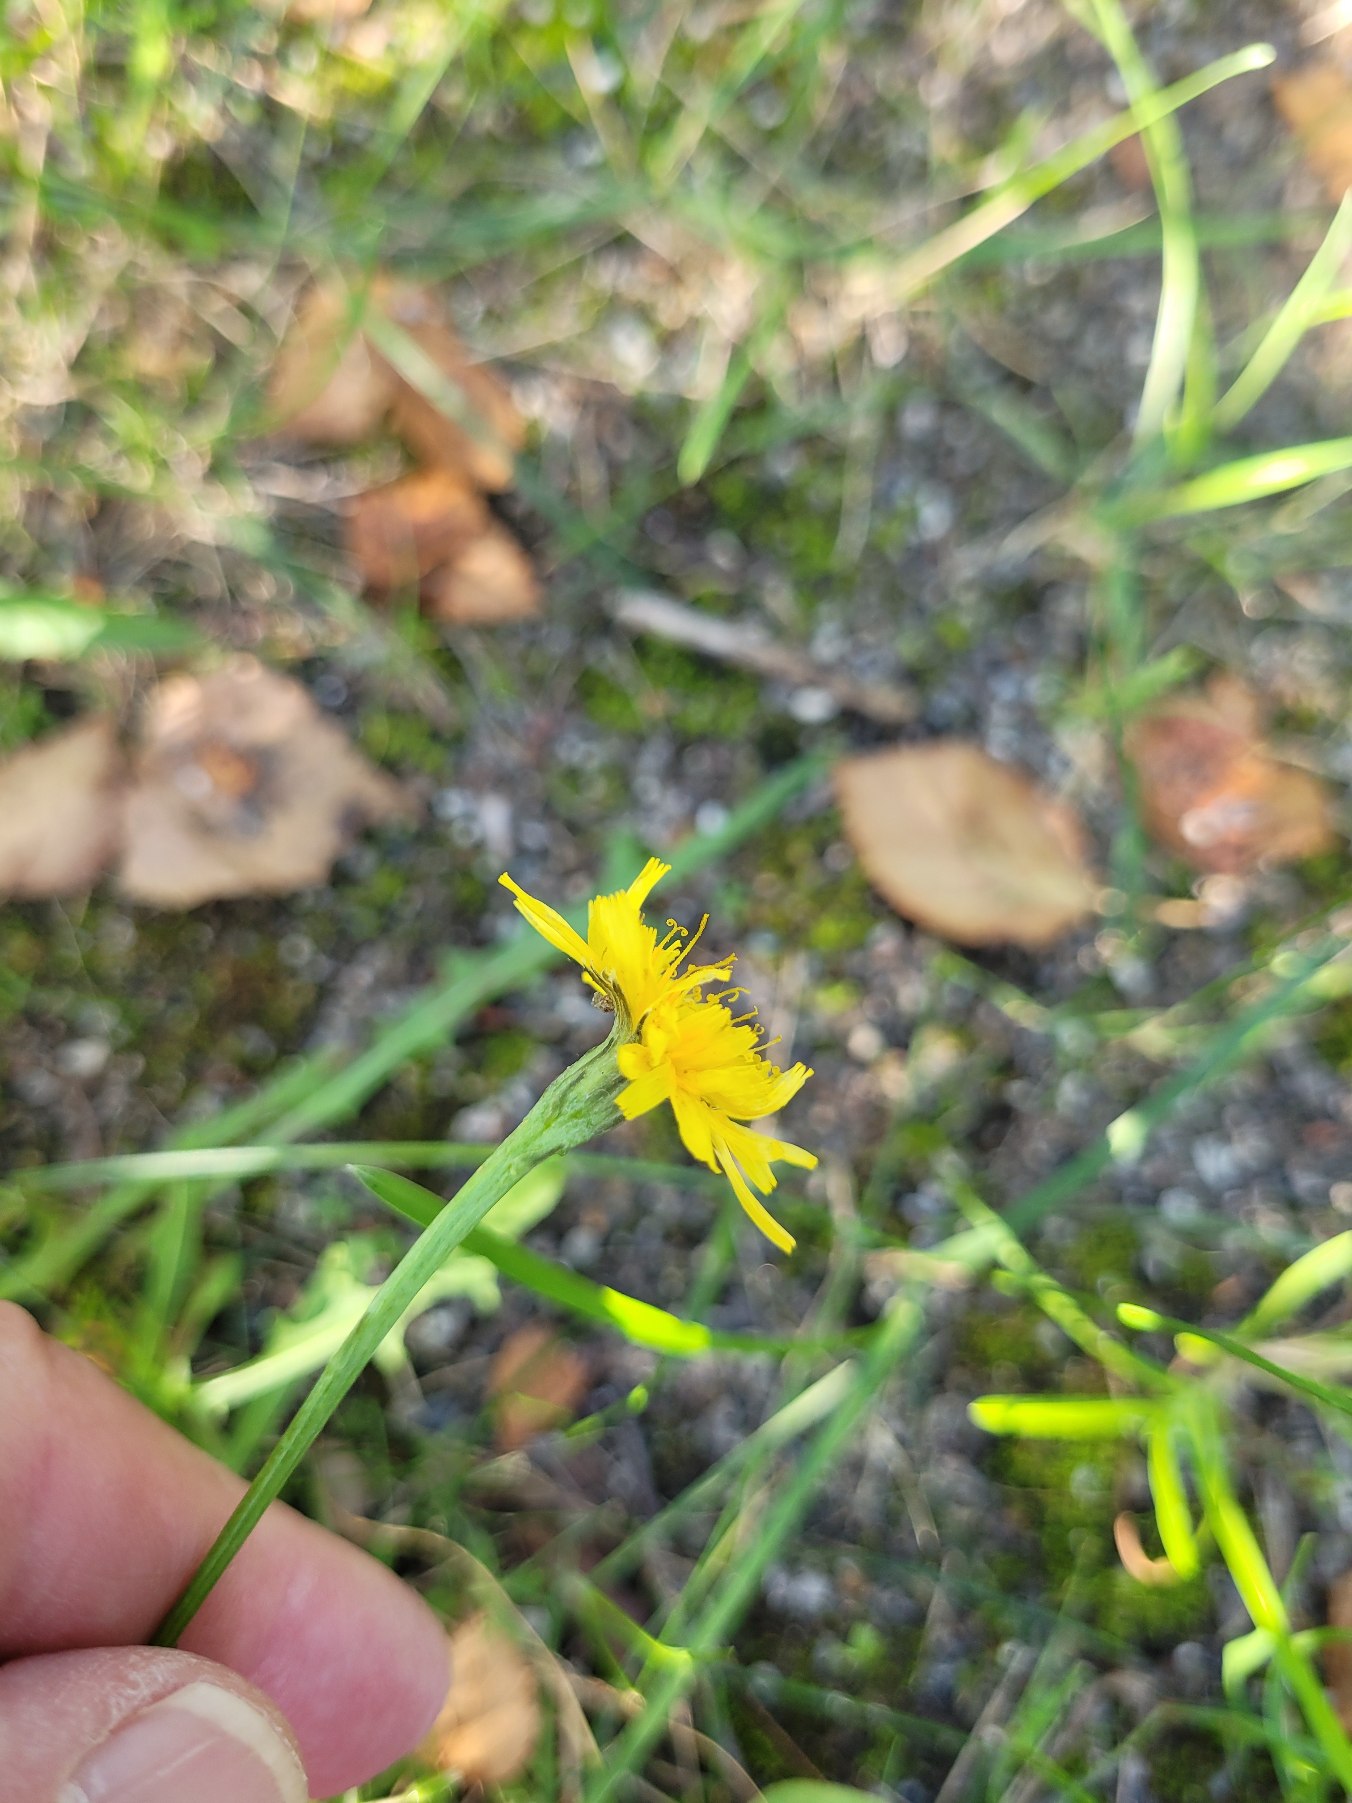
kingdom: Plantae
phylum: Tracheophyta
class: Magnoliopsida
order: Asterales
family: Asteraceae
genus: Scorzoneroides
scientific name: Scorzoneroides autumnalis
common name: Høst-borst
